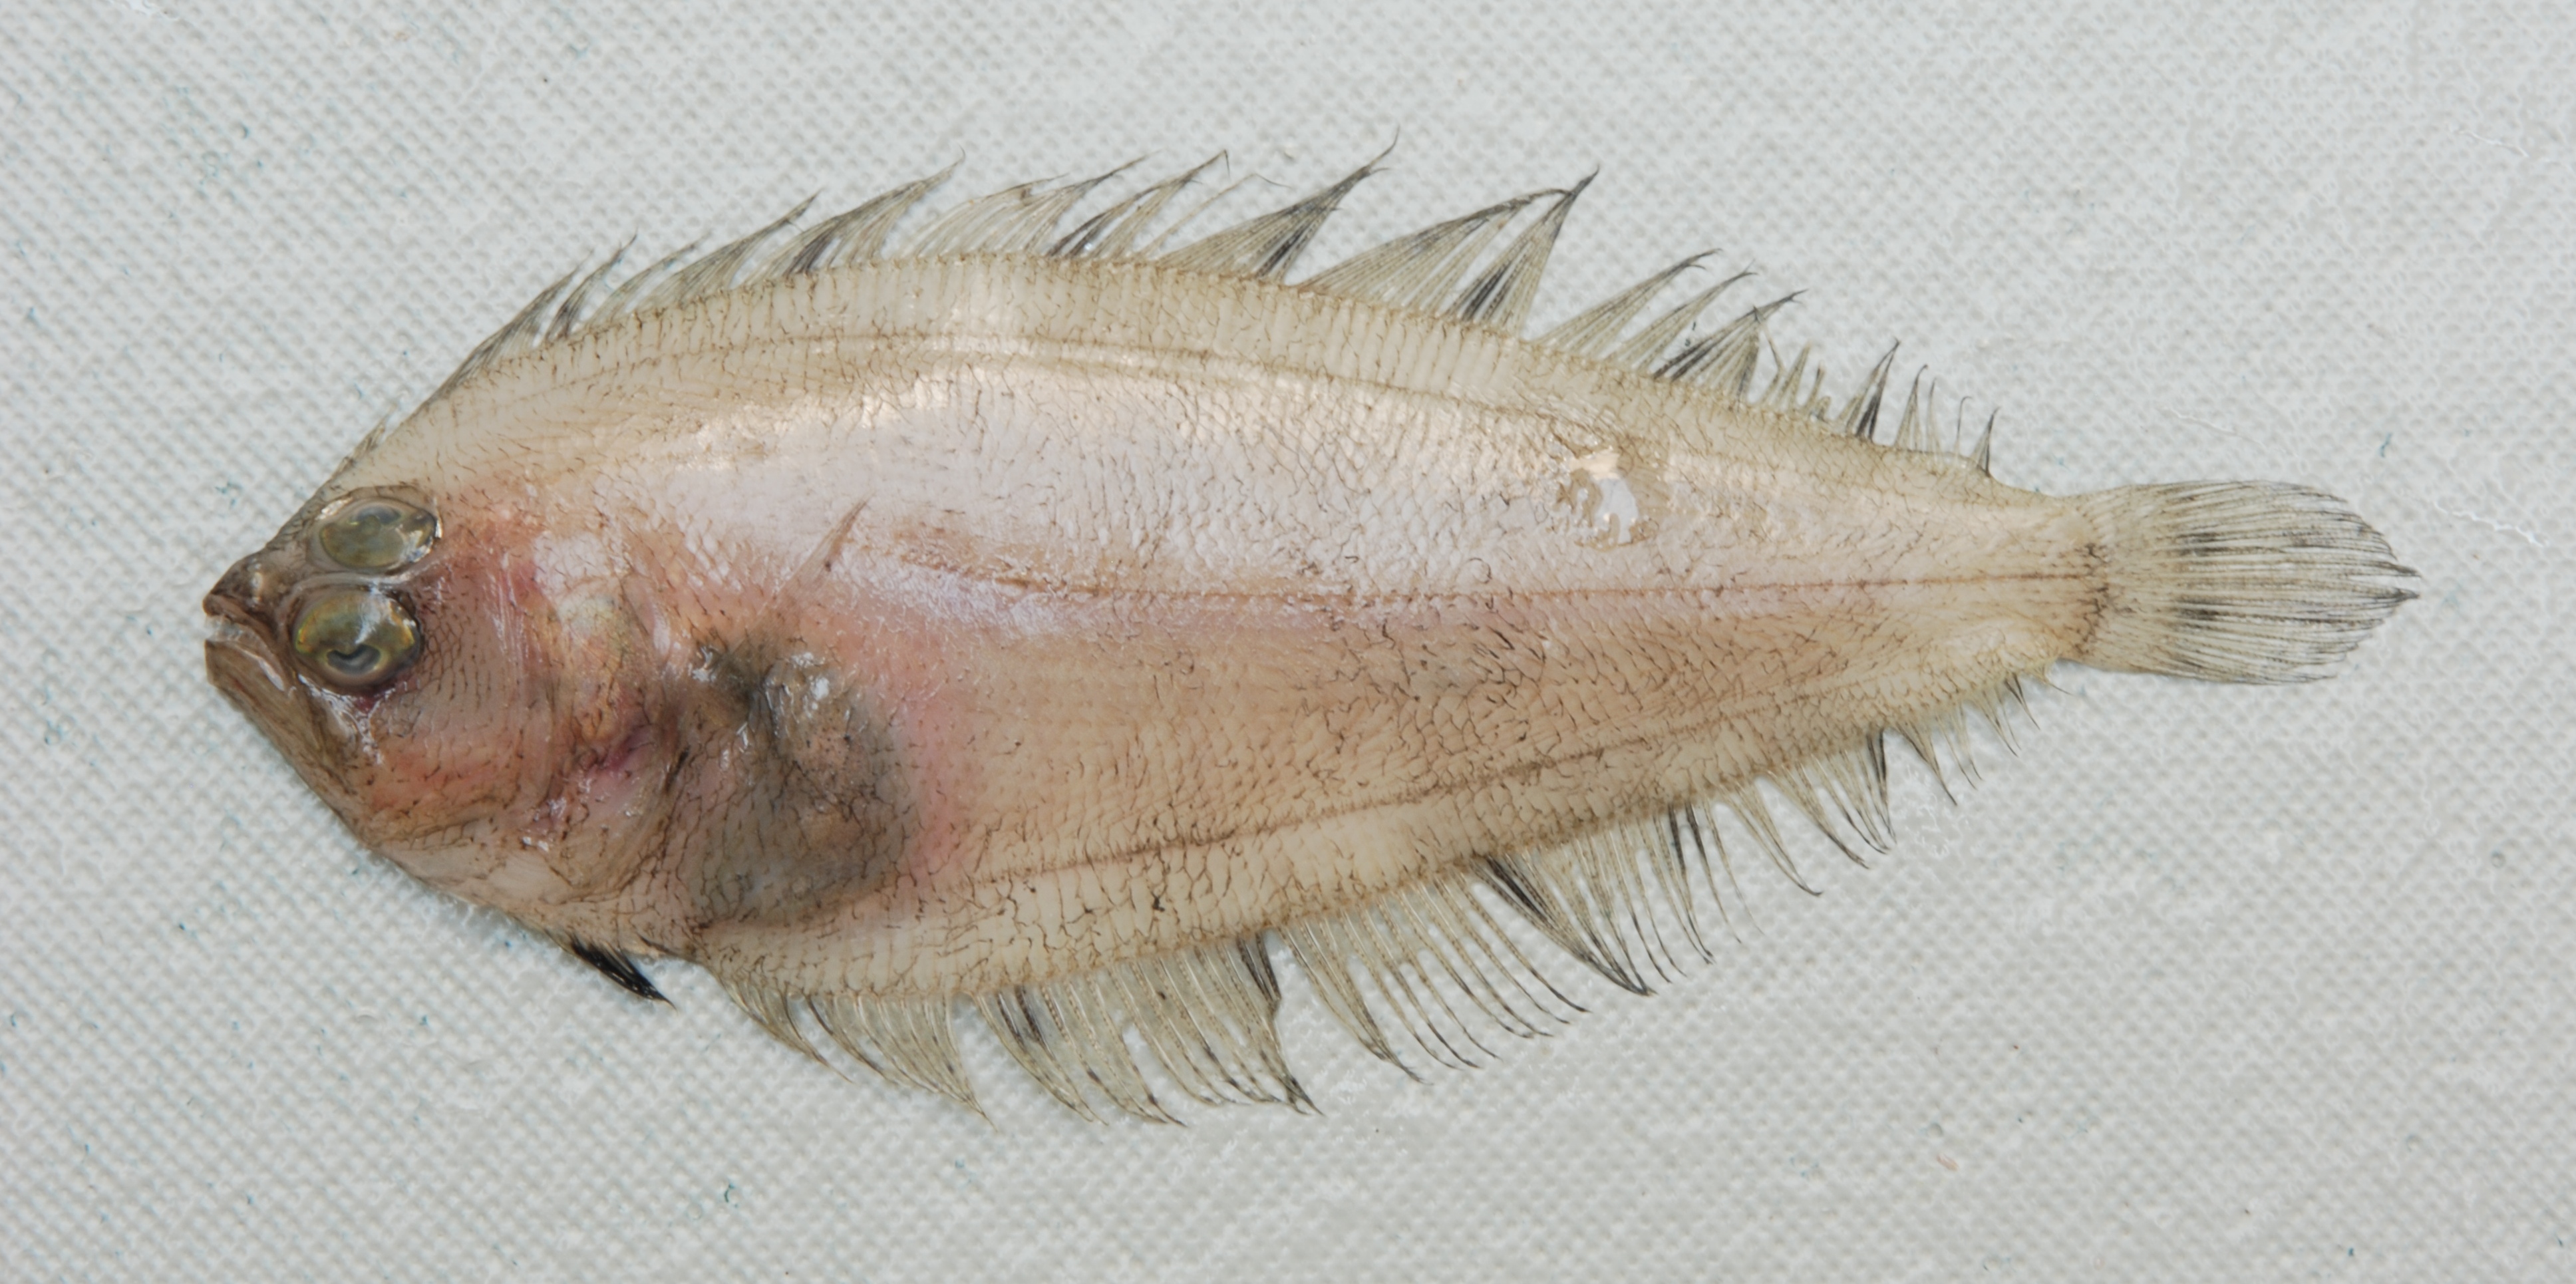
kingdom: Animalia
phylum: Chordata
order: Pleuronectiformes
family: Bothidae
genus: Arnoglossus
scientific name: Arnoglossus dalgleishi
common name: East coast flounder
